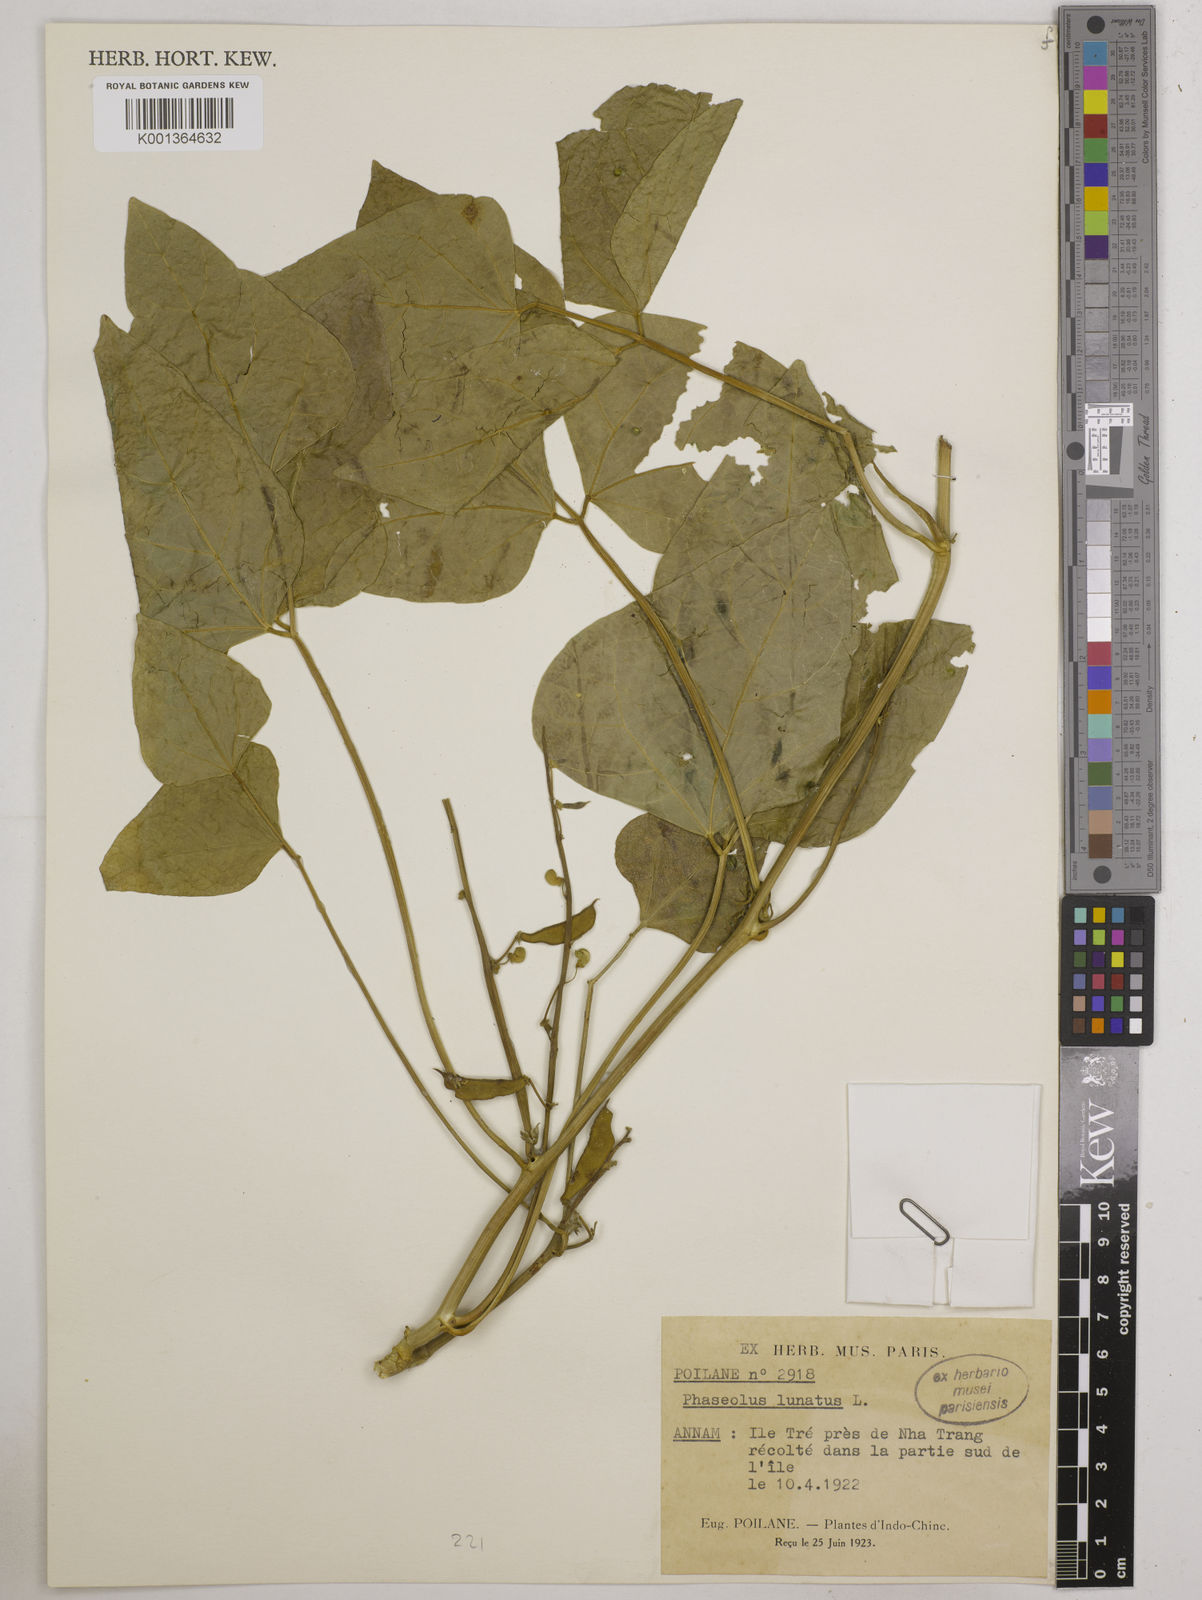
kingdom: Plantae
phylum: Tracheophyta
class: Magnoliopsida
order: Fabales
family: Fabaceae
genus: Phaseolus
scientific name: Phaseolus lunatus
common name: Sieva bean
